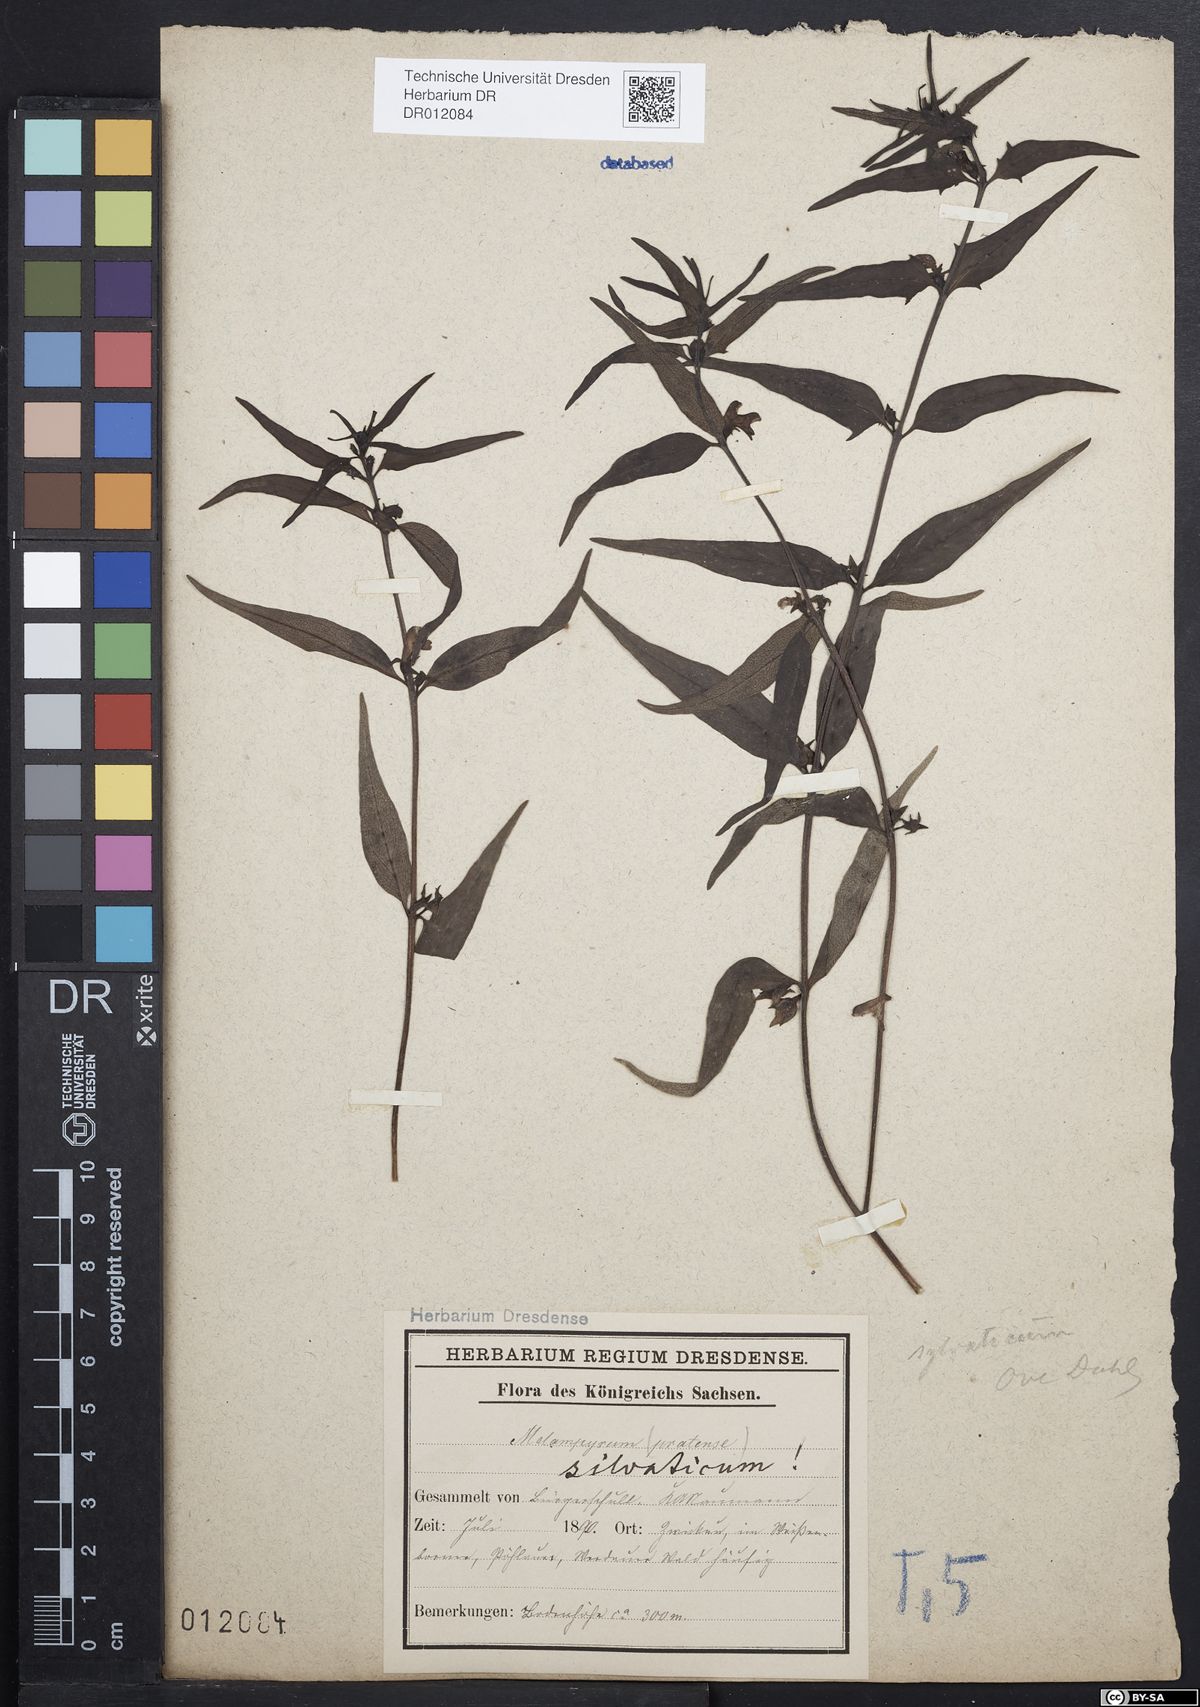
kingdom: Plantae
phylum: Tracheophyta
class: Magnoliopsida
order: Lamiales
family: Orobanchaceae
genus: Melampyrum
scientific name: Melampyrum sylvaticum
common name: Small cow-wheat
